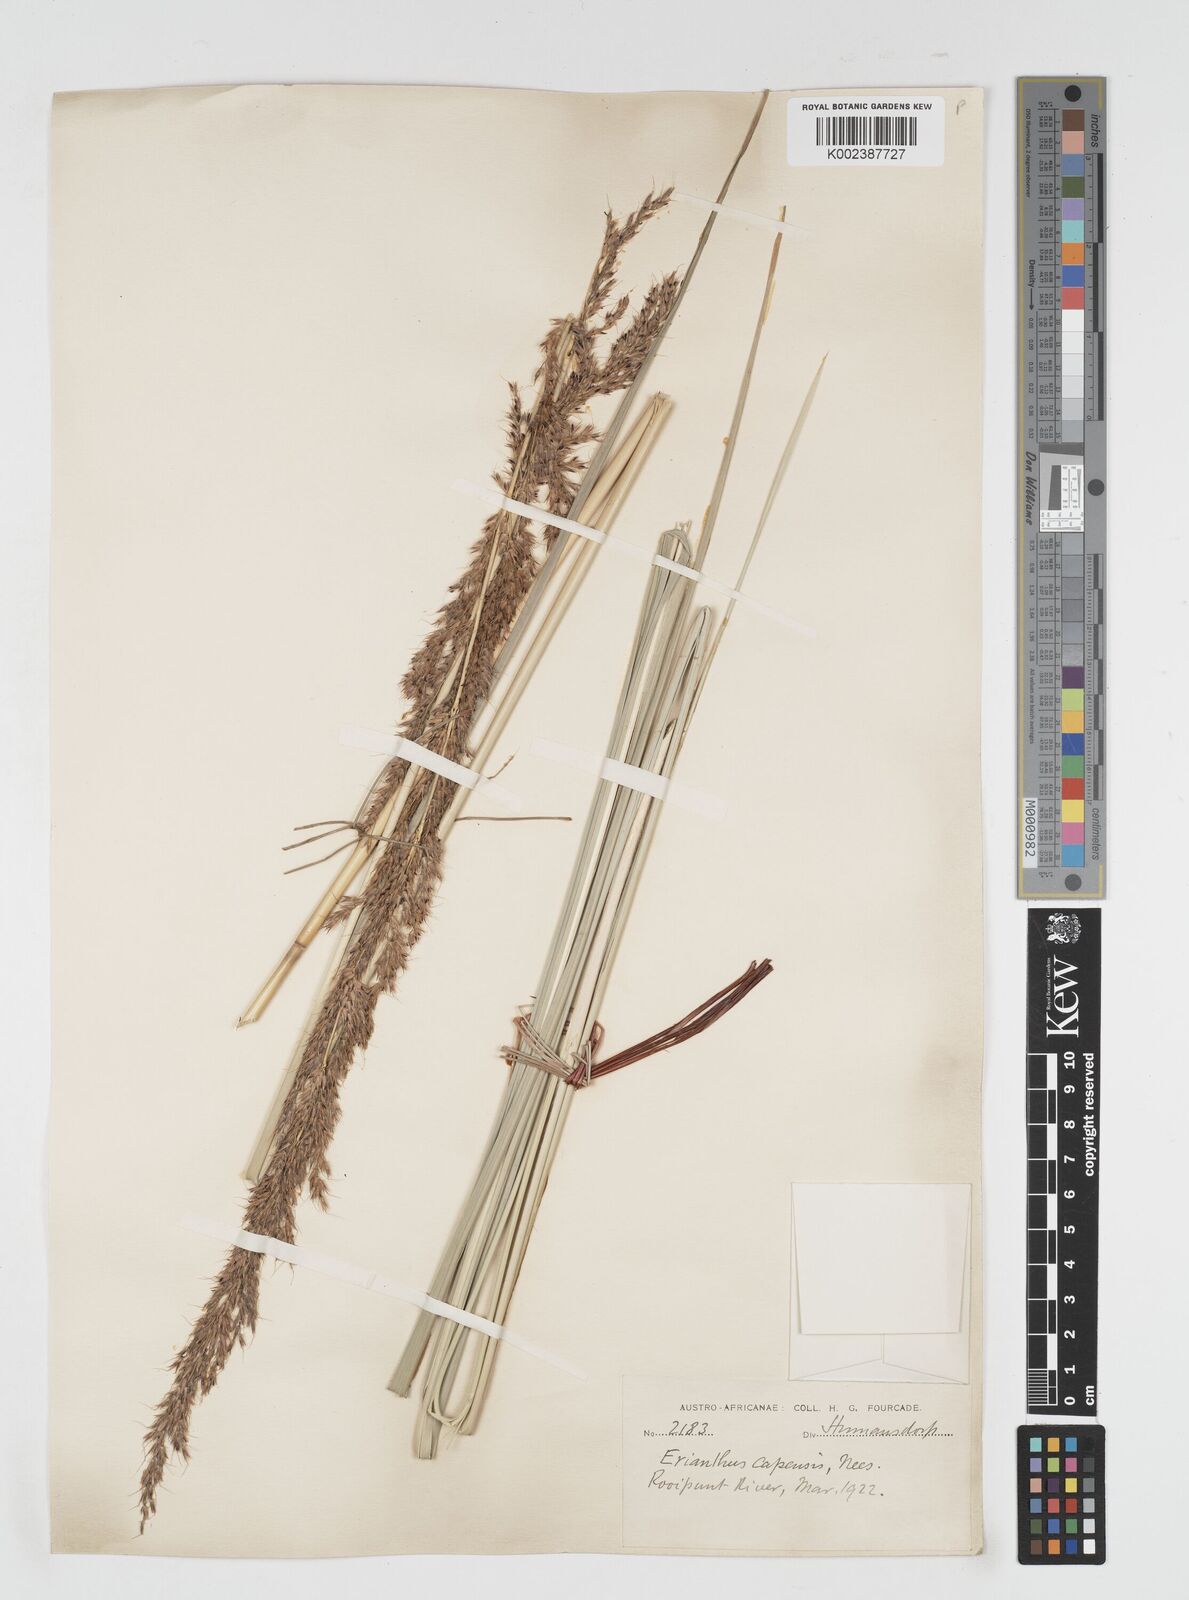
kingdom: Plantae
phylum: Tracheophyta
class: Liliopsida
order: Poales
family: Poaceae
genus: Miscanthus
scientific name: Miscanthus ecklonii
